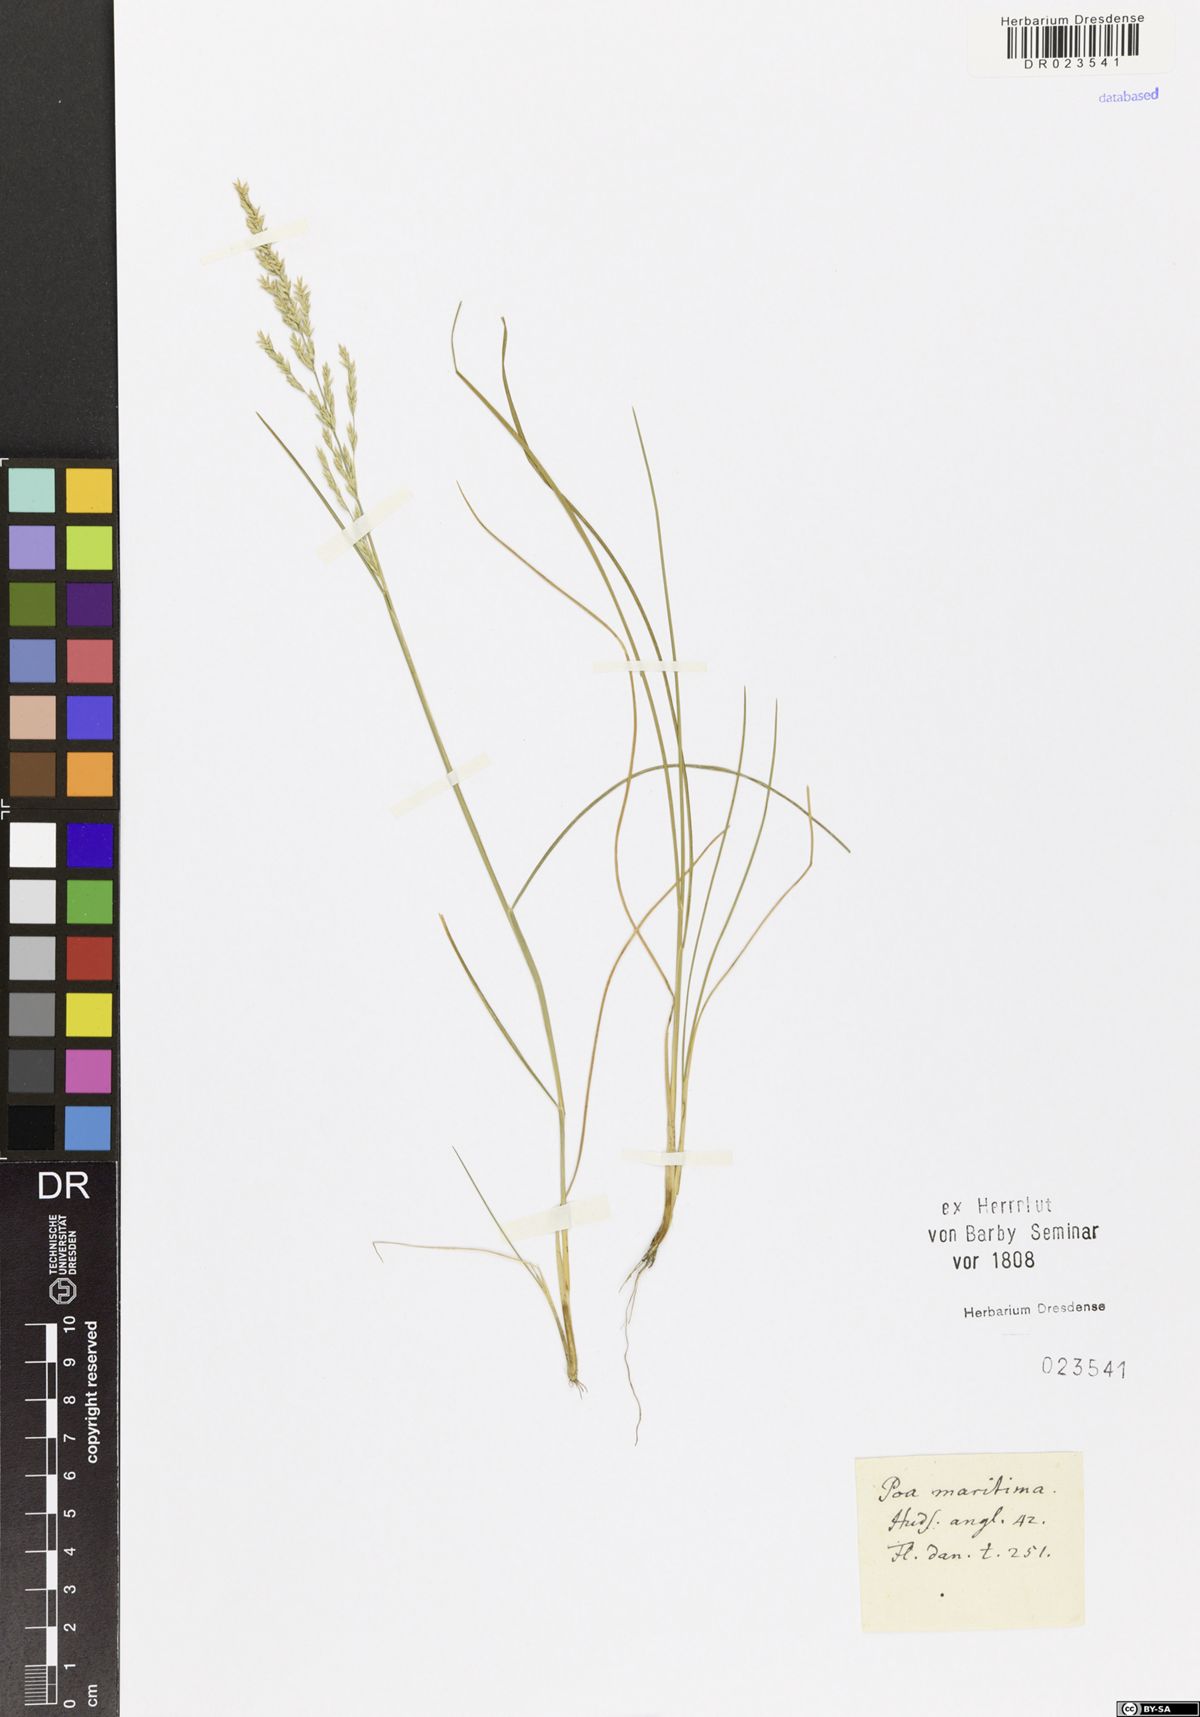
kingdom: Plantae
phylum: Tracheophyta
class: Liliopsida
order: Poales
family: Poaceae
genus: Puccinellia
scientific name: Puccinellia maritima
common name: Common saltmarsh grass
